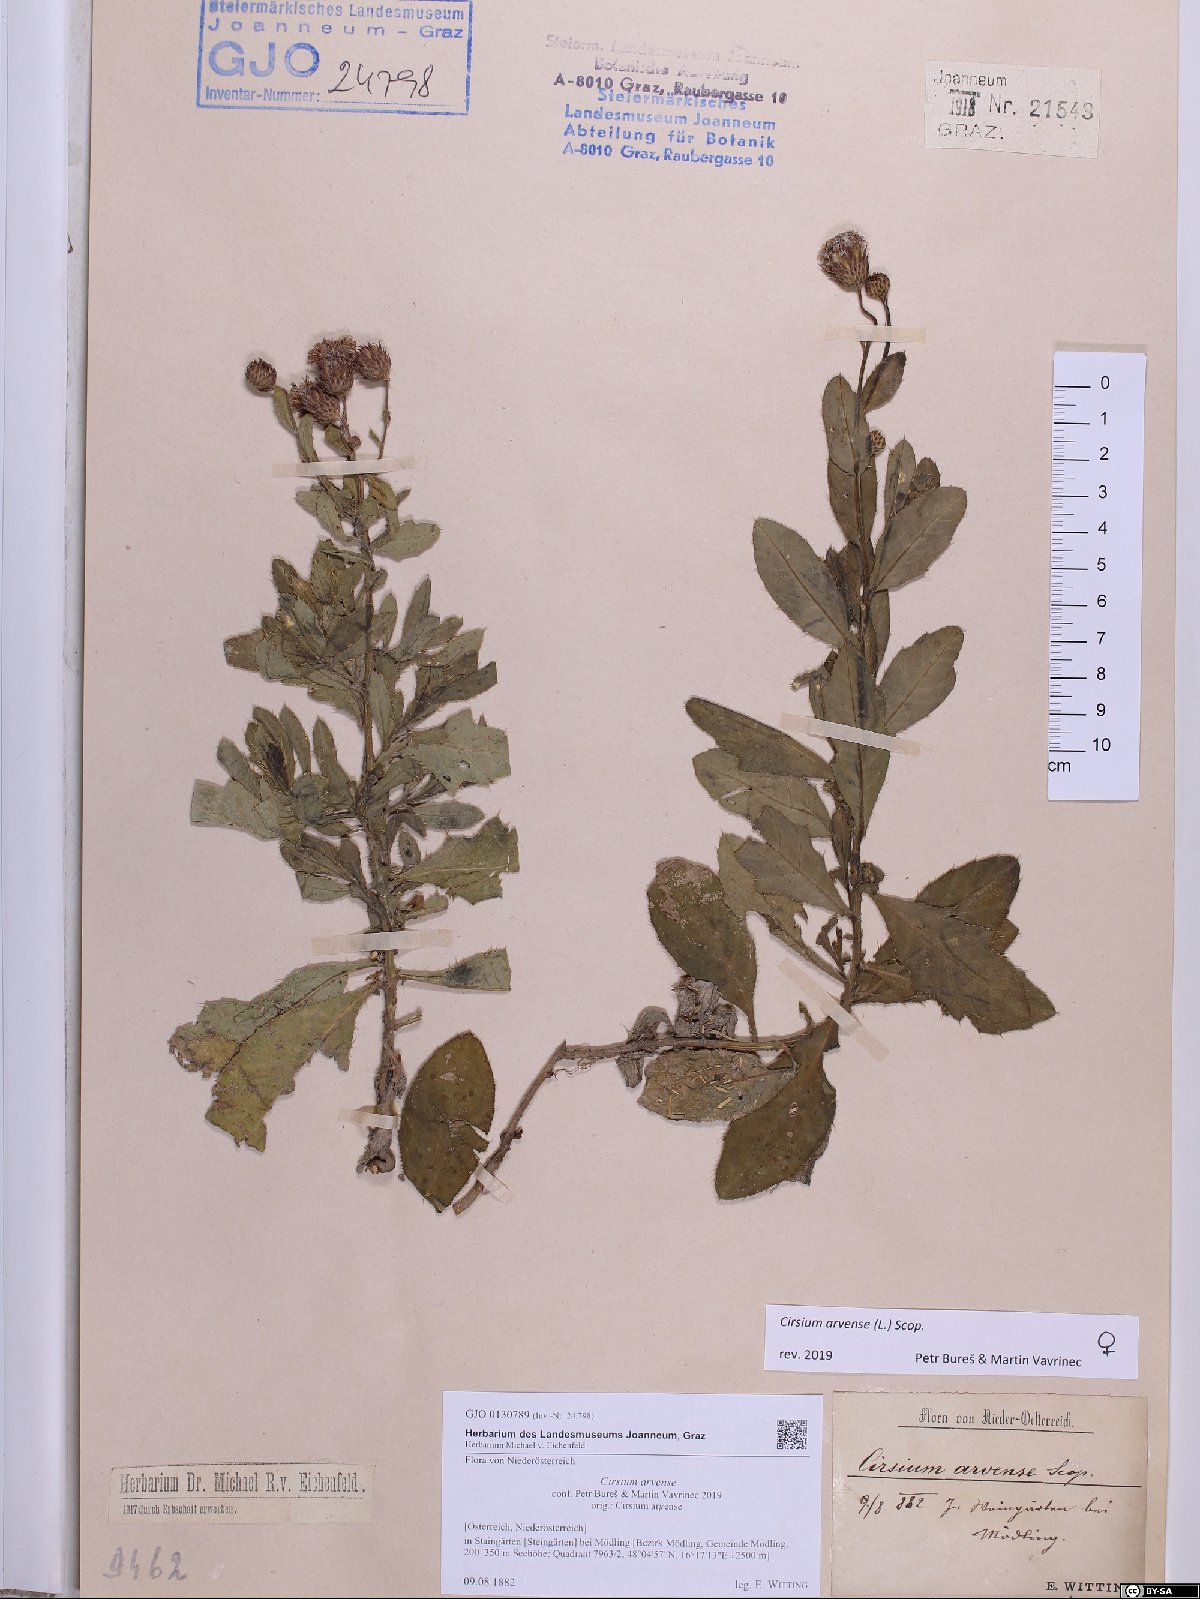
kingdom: Plantae
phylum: Tracheophyta
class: Magnoliopsida
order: Asterales
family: Asteraceae
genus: Cirsium
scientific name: Cirsium arvense
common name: Creeping thistle
